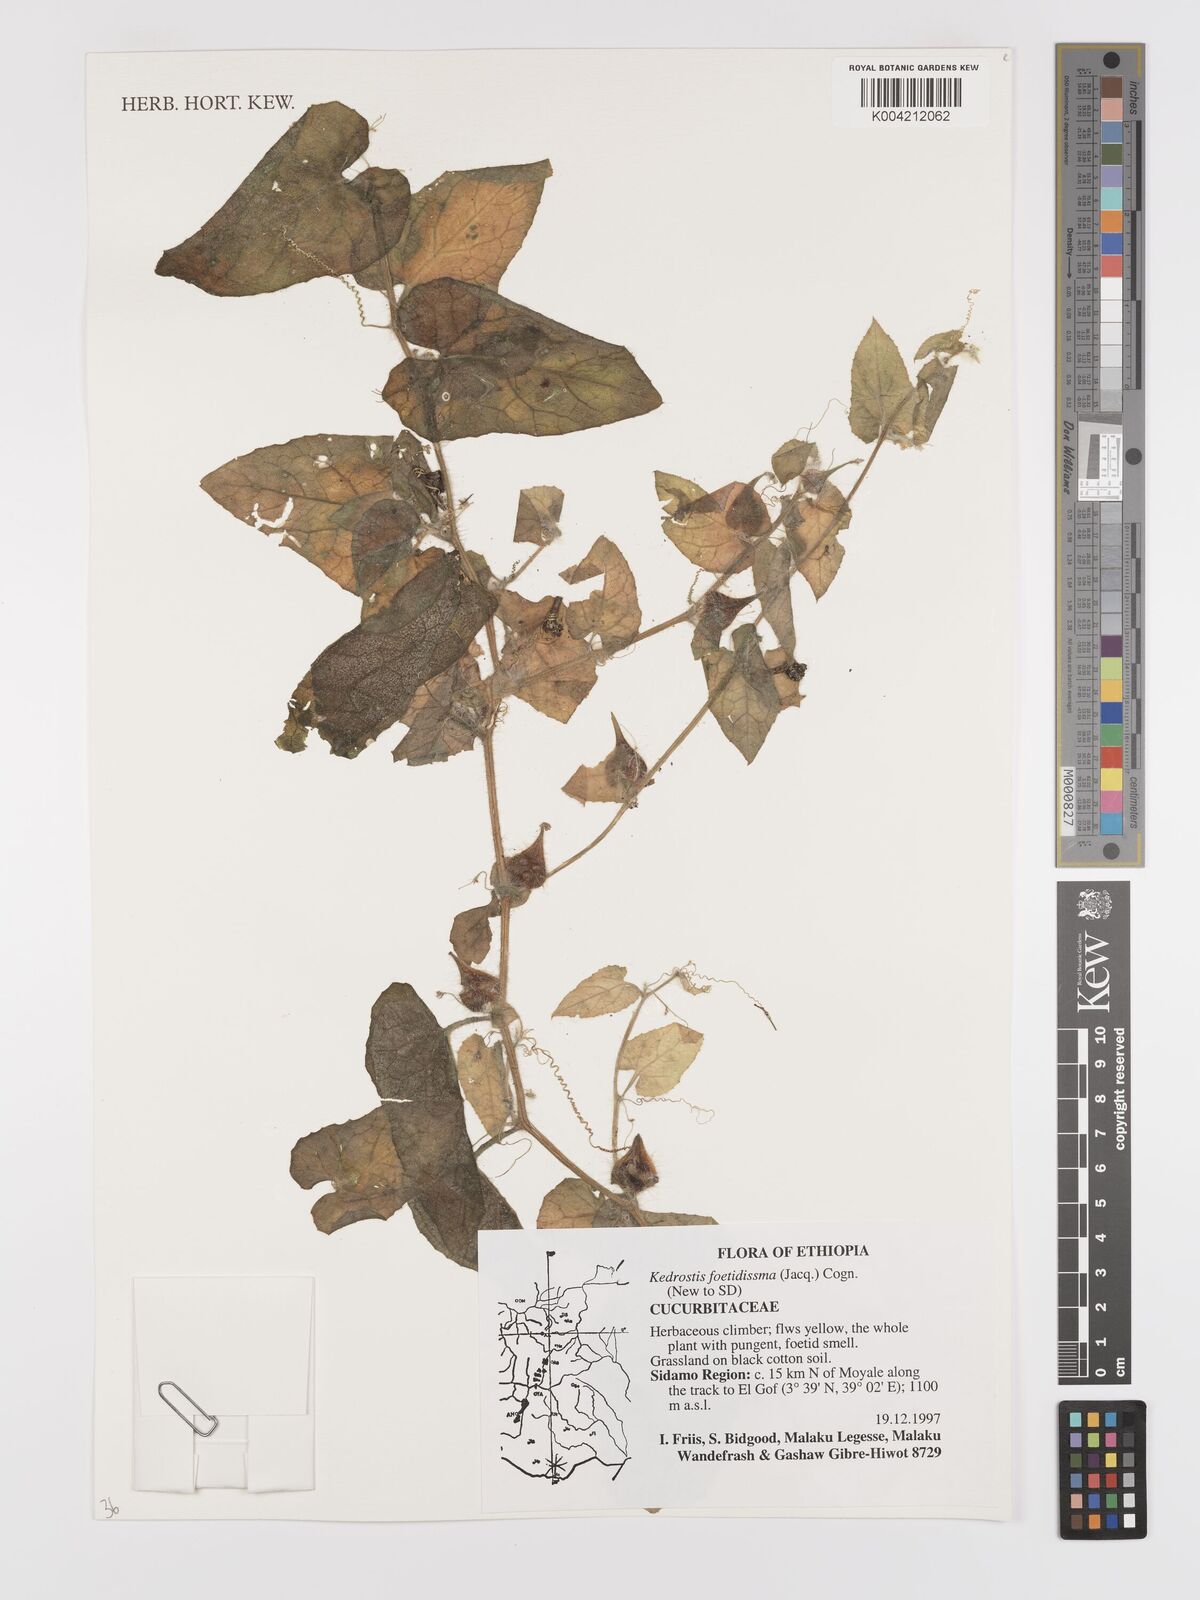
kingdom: Plantae
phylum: Tracheophyta
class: Magnoliopsida
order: Cucurbitales
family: Cucurbitaceae
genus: Kedrostis
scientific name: Kedrostis foetidissima
